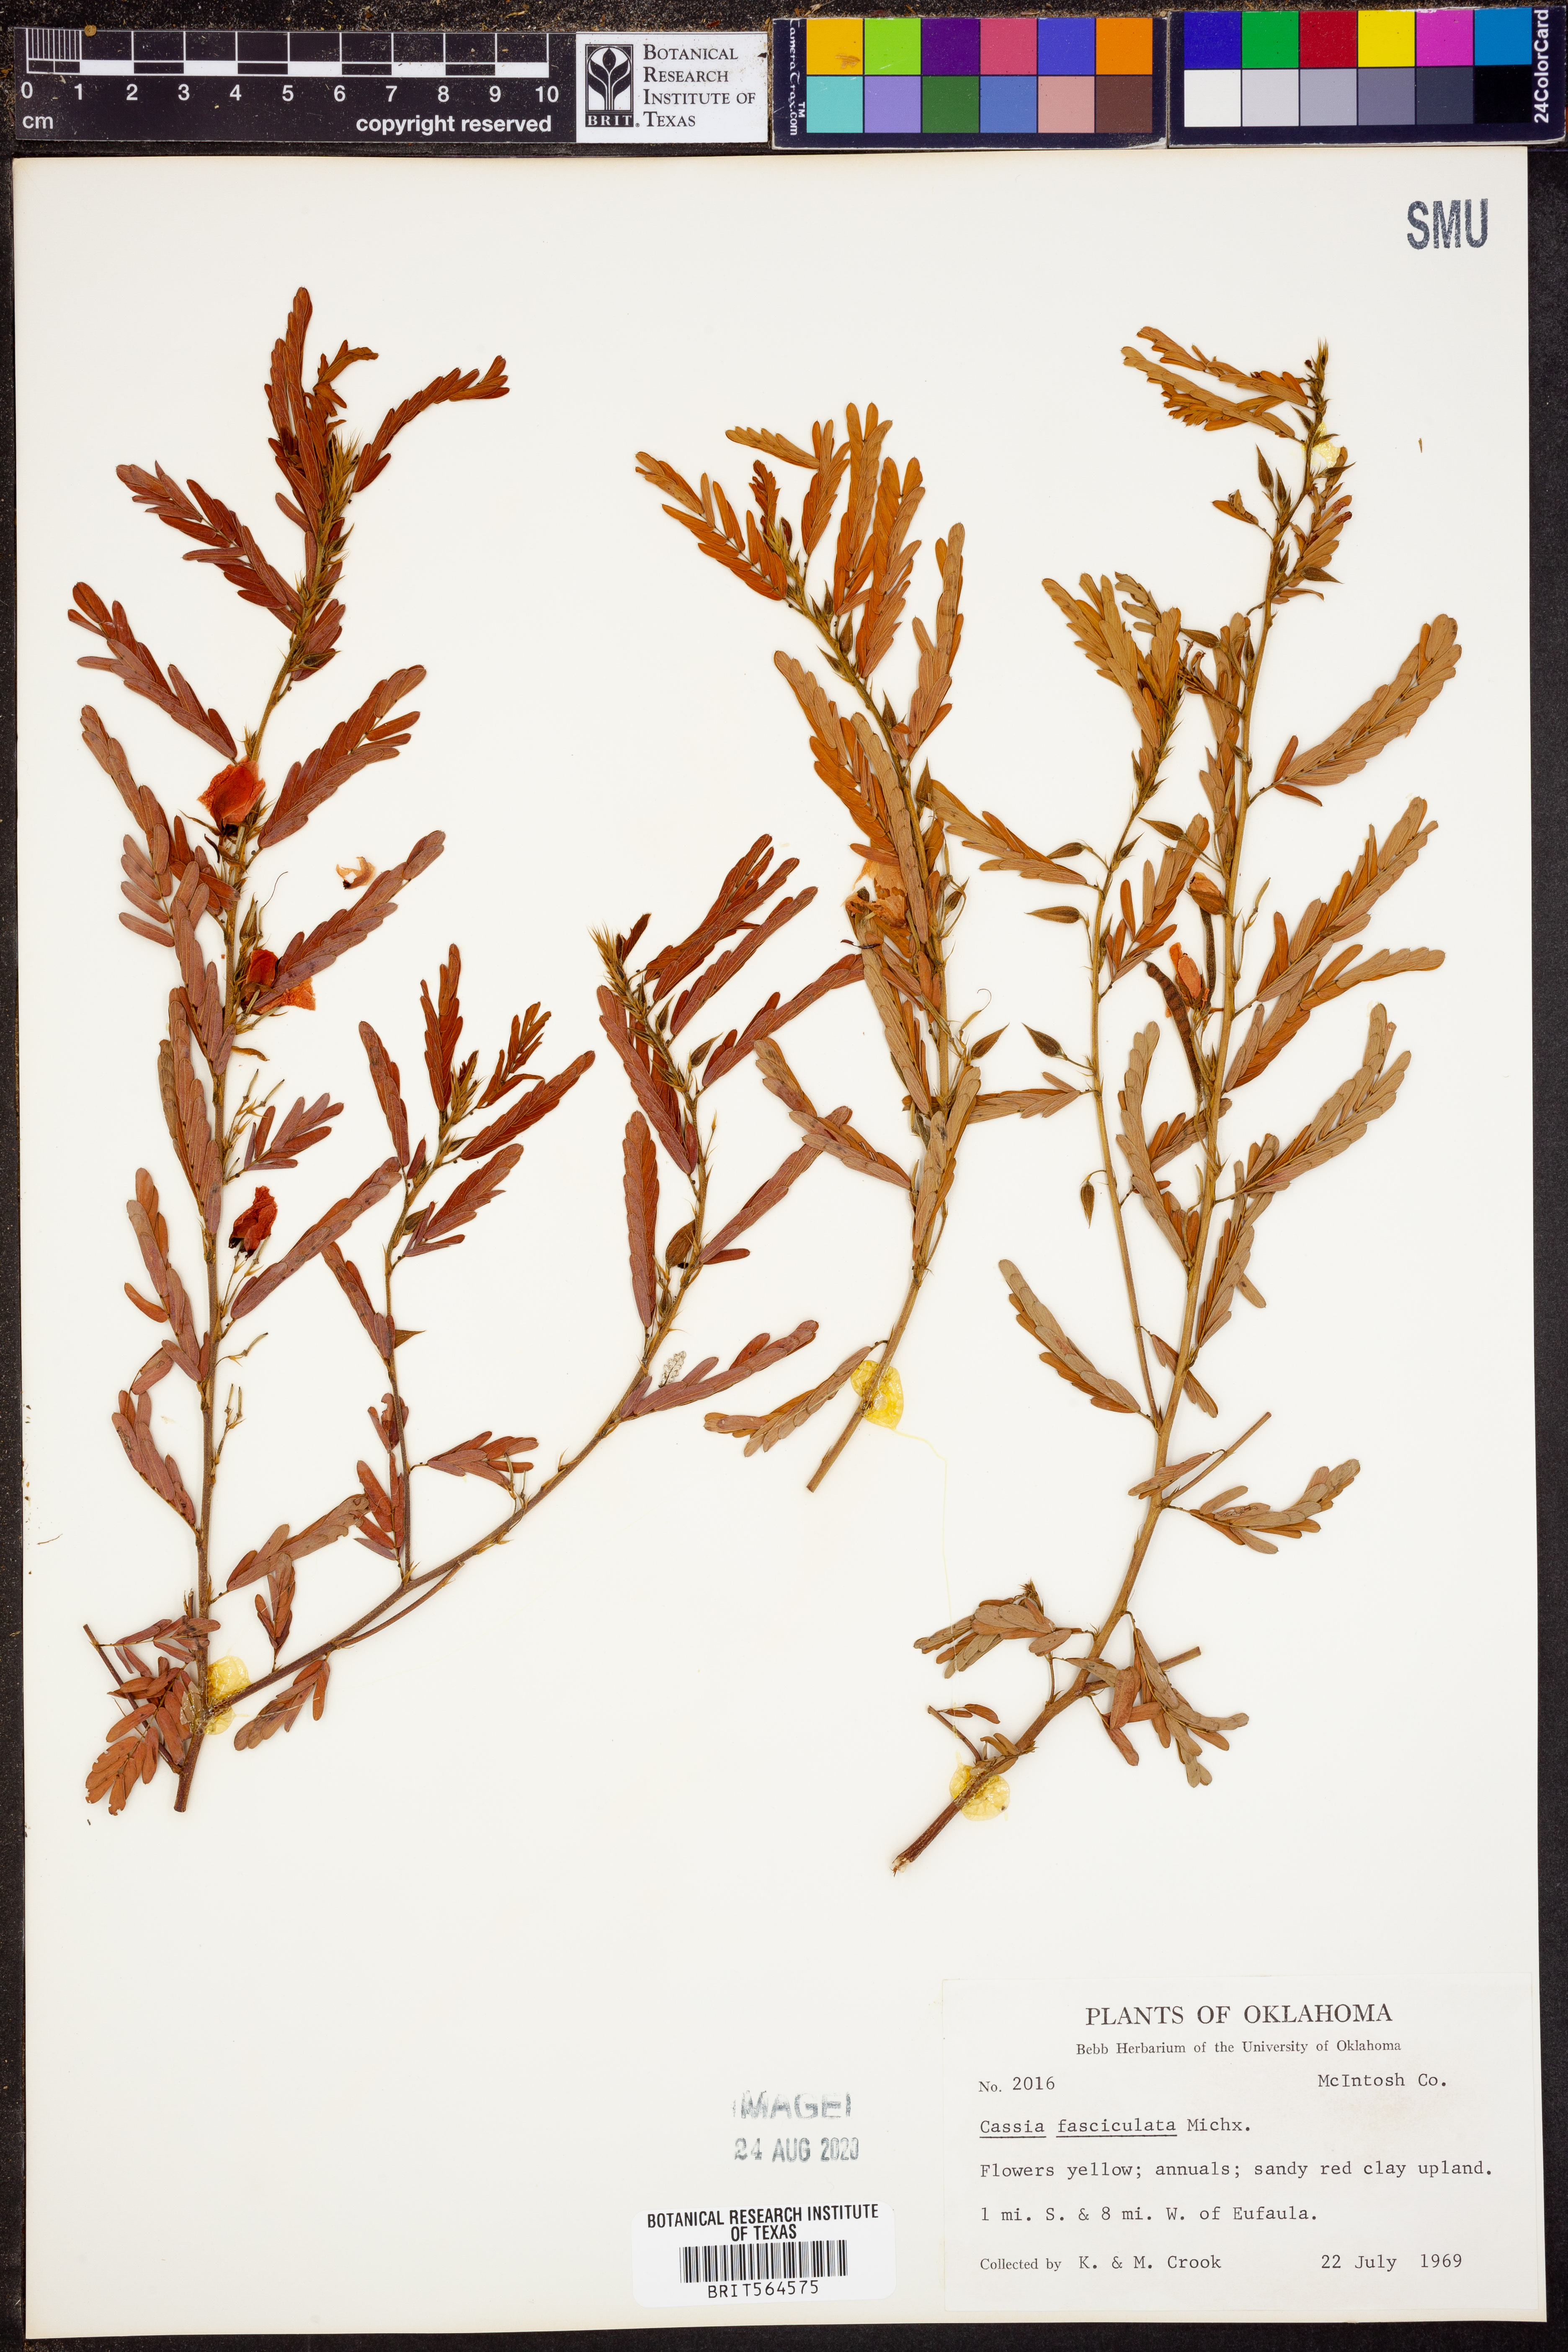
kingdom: Plantae
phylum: Tracheophyta
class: Magnoliopsida
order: Fabales
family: Fabaceae
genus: Chamaecrista
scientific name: Chamaecrista fasciculata
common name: Golden cassia
